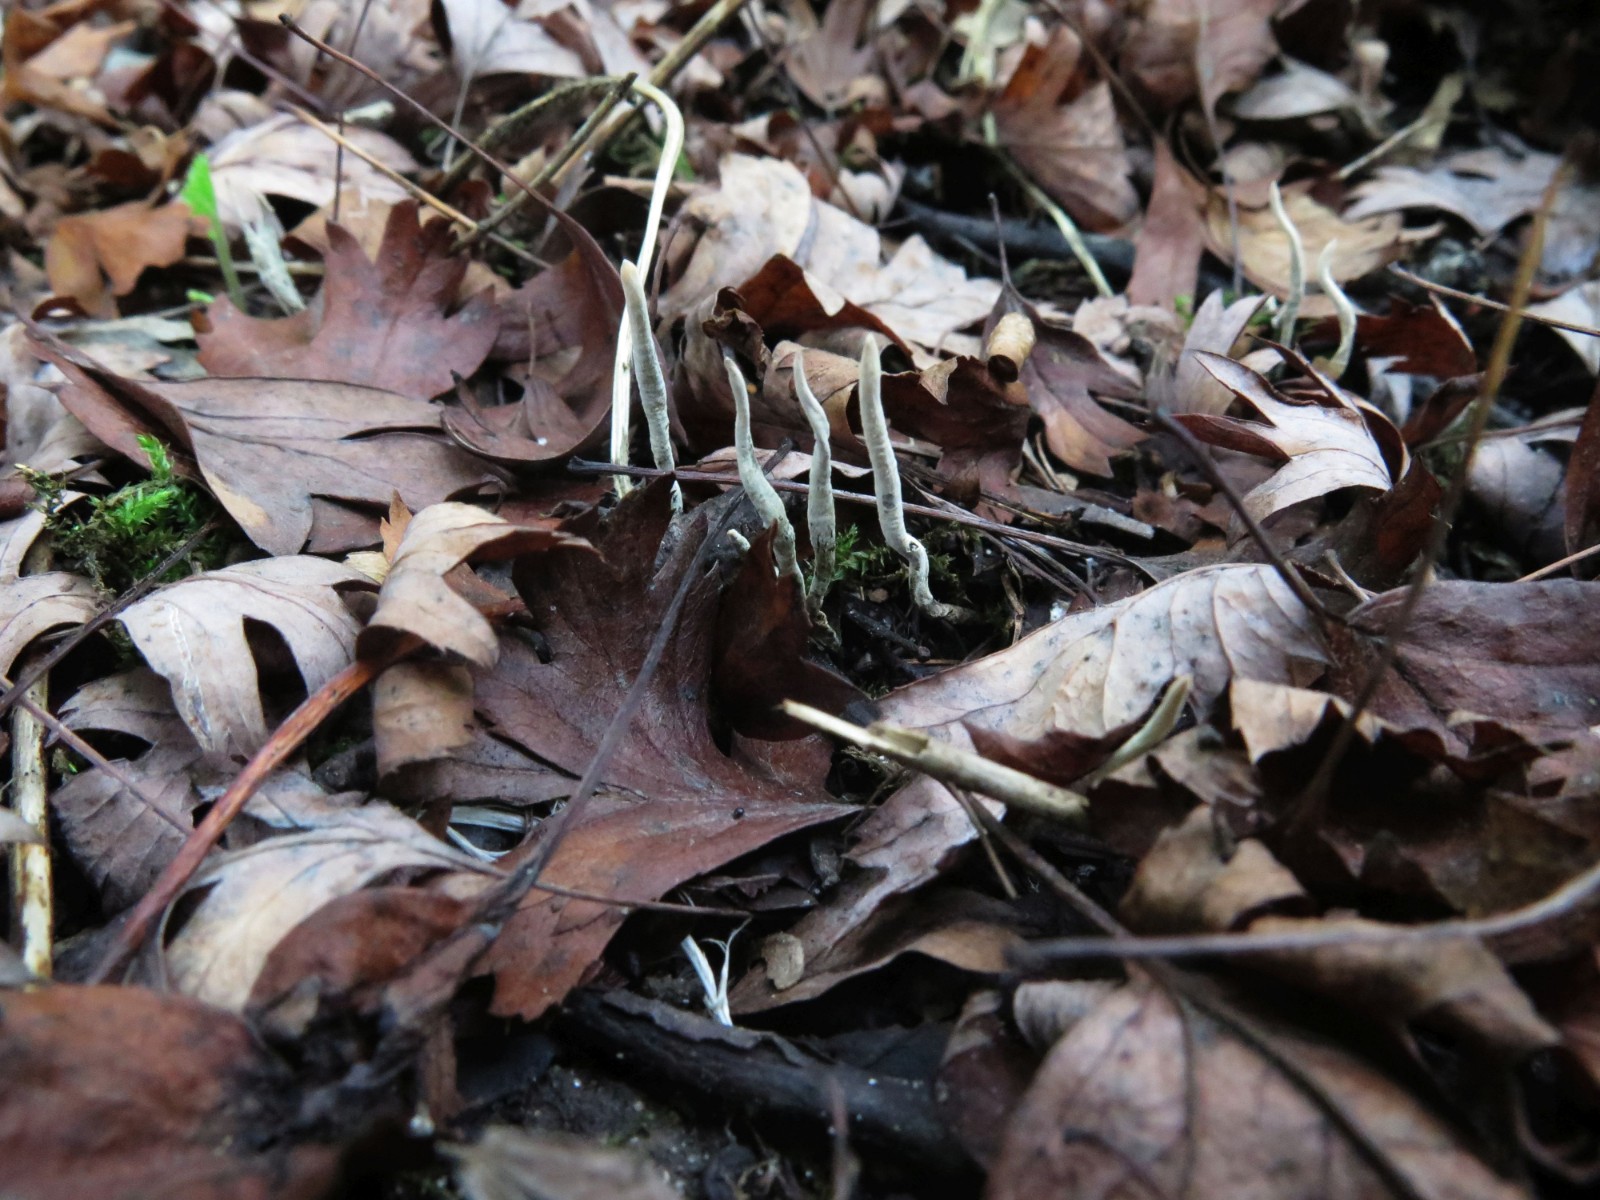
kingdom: Fungi
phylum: Ascomycota
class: Sordariomycetes
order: Xylariales
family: Xylariaceae
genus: Xylaria
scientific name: Xylaria oxyacanthae
